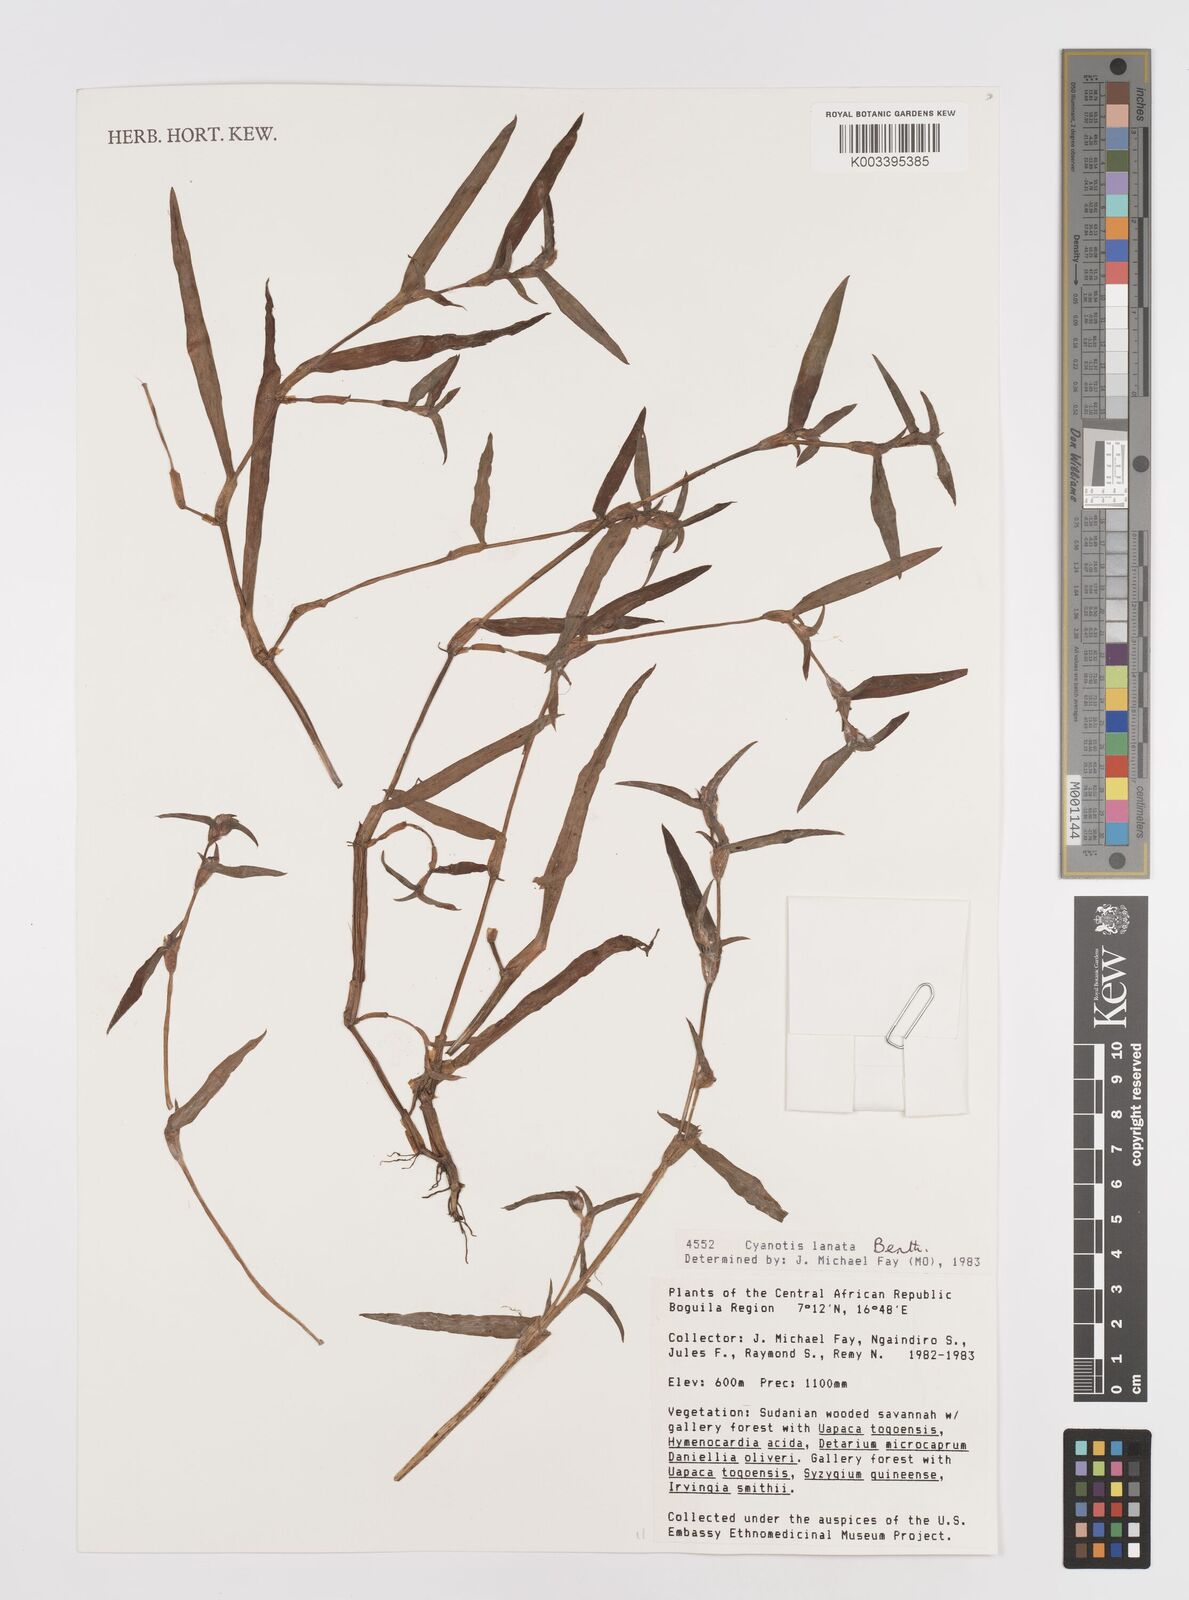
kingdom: Plantae
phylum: Tracheophyta
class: Liliopsida
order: Commelinales
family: Commelinaceae
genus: Cyanotis
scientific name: Cyanotis lanata
